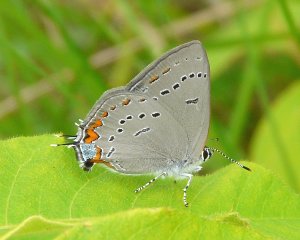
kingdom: Animalia
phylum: Arthropoda
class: Insecta
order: Lepidoptera
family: Lycaenidae
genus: Strymon
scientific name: Strymon acadica
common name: Acadian Hairstreak
